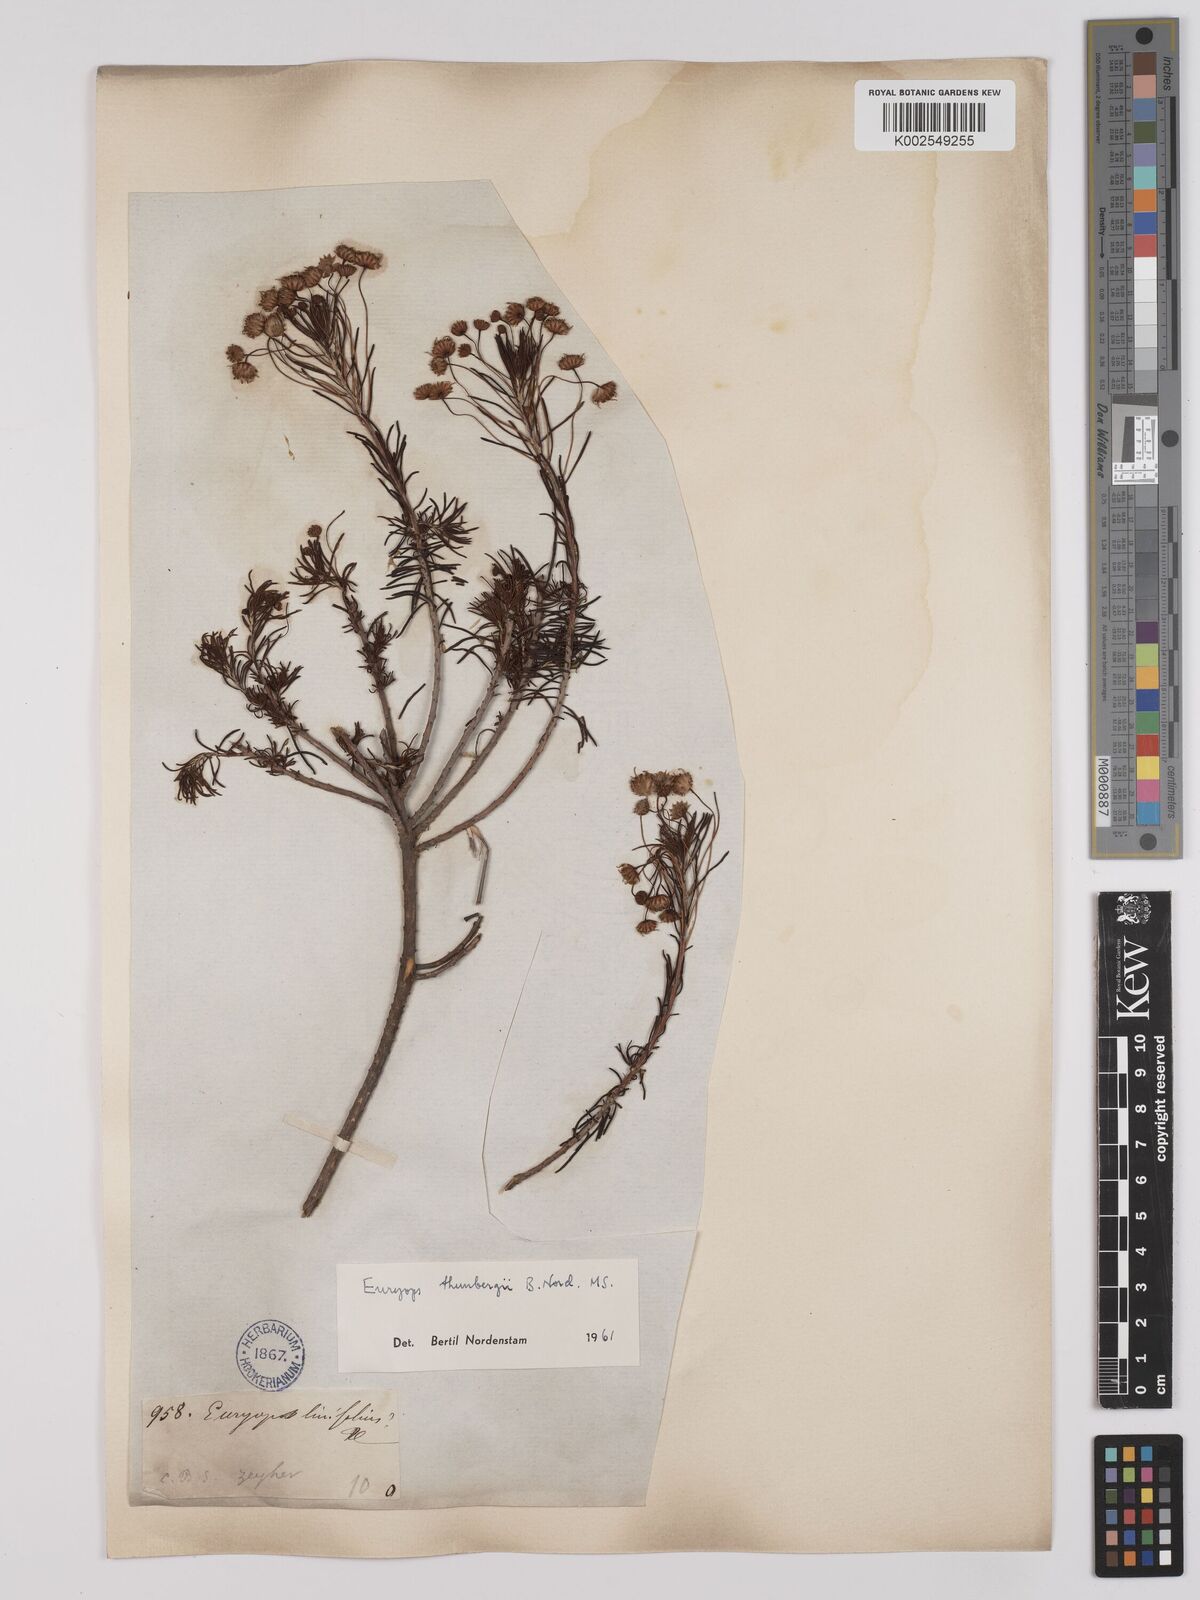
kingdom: Plantae
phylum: Tracheophyta
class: Magnoliopsida
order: Asterales
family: Asteraceae
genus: Euryops
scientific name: Euryops thunbergii
